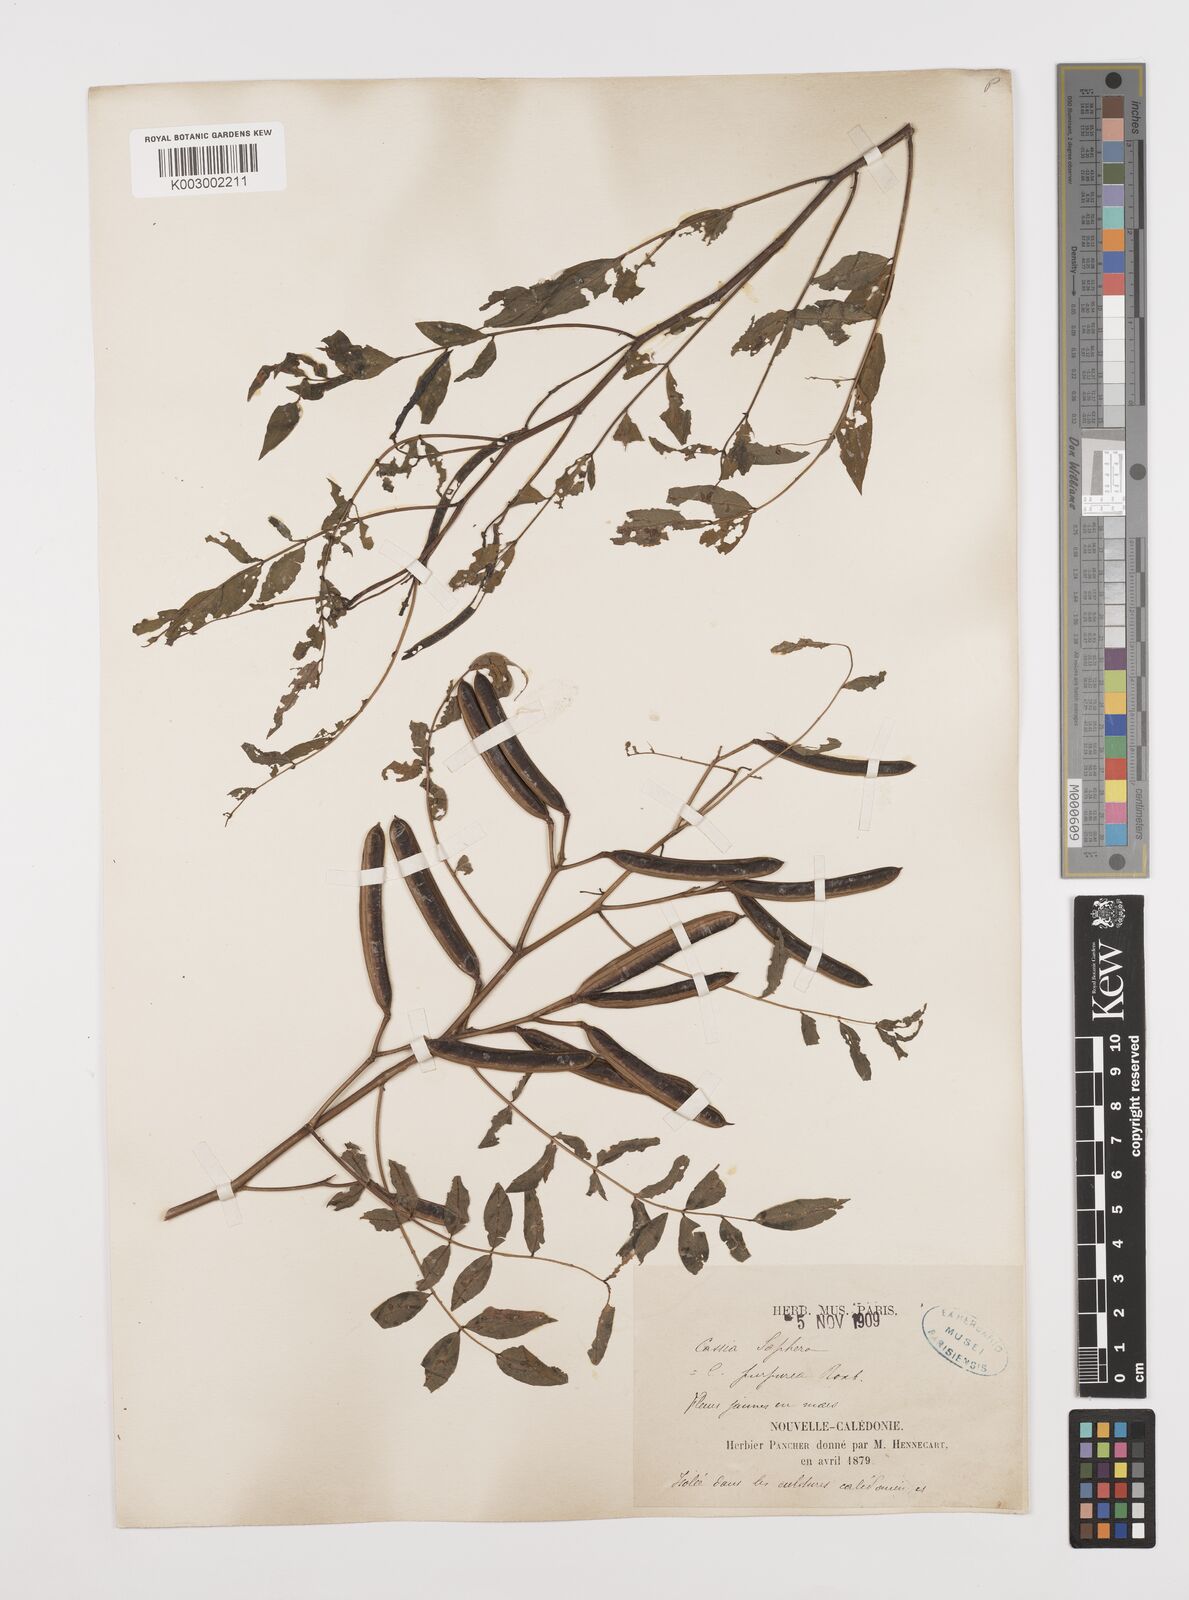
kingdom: Plantae
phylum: Tracheophyta
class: Magnoliopsida
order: Fabales
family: Fabaceae
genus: Senna
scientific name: Senna sophera
